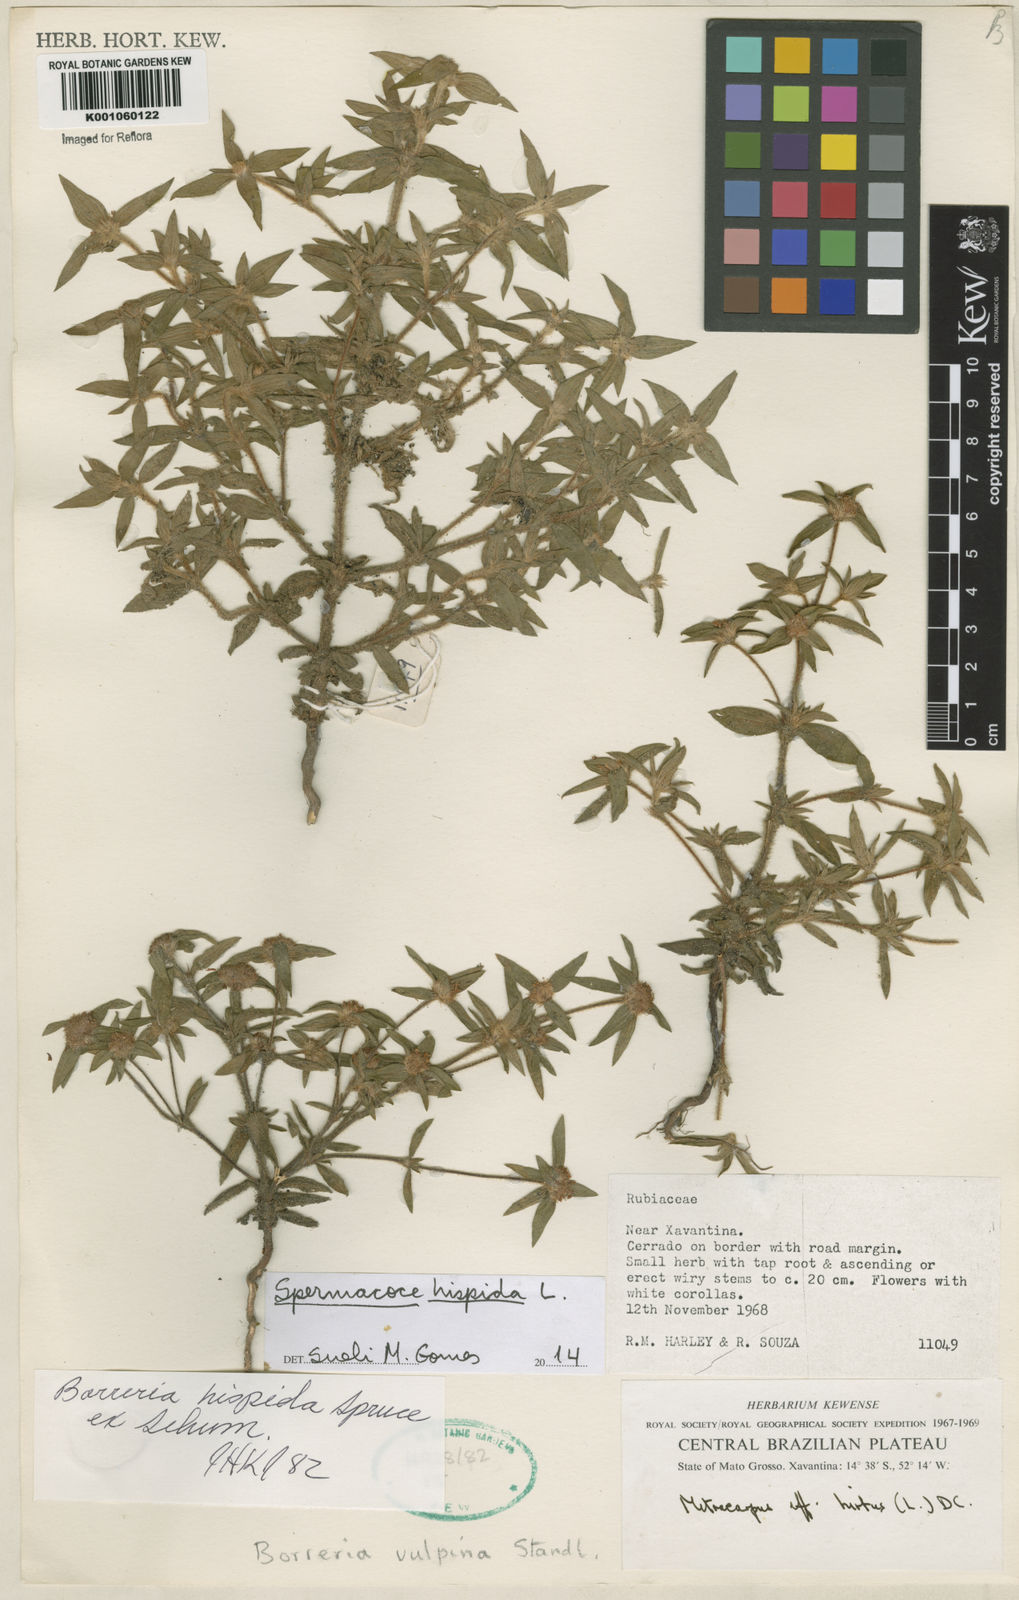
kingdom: Plantae
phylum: Tracheophyta
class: Magnoliopsida
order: Gentianales
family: Rubiaceae
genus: Spermacoce
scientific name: Spermacoce hispida
